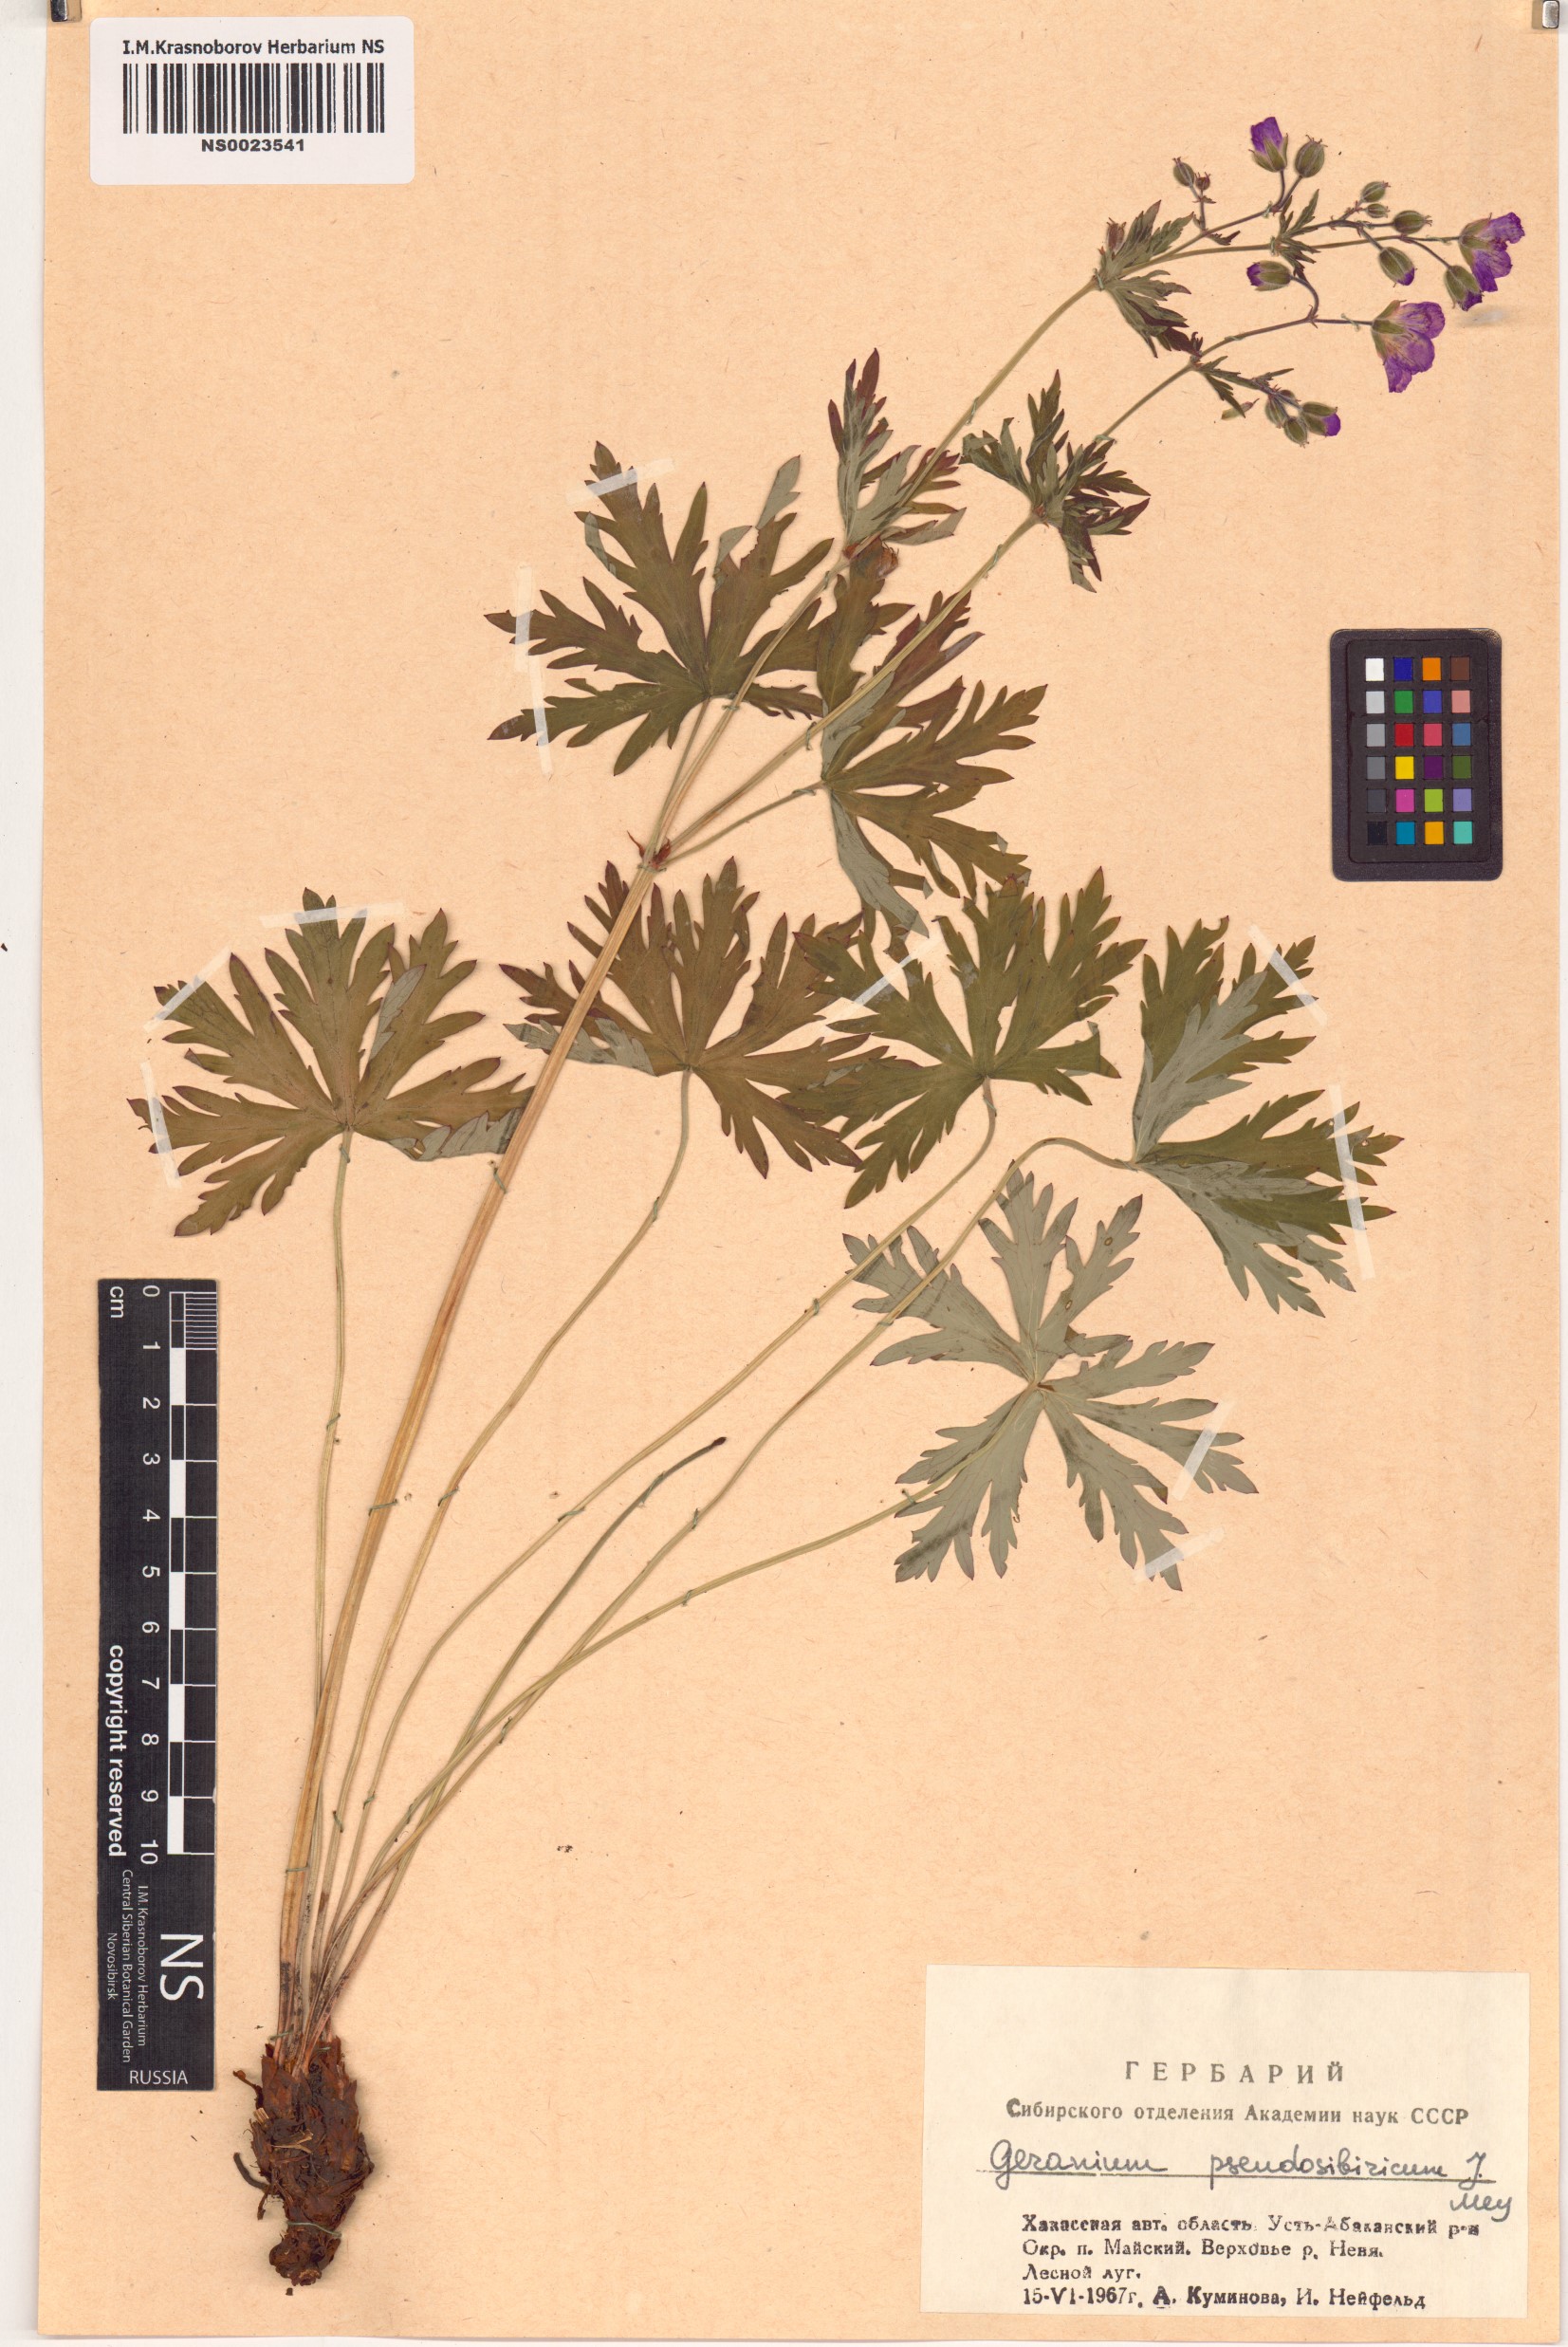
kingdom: Plantae
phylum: Tracheophyta
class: Magnoliopsida
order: Geraniales
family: Geraniaceae
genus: Geranium
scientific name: Geranium pseudosibiricum
